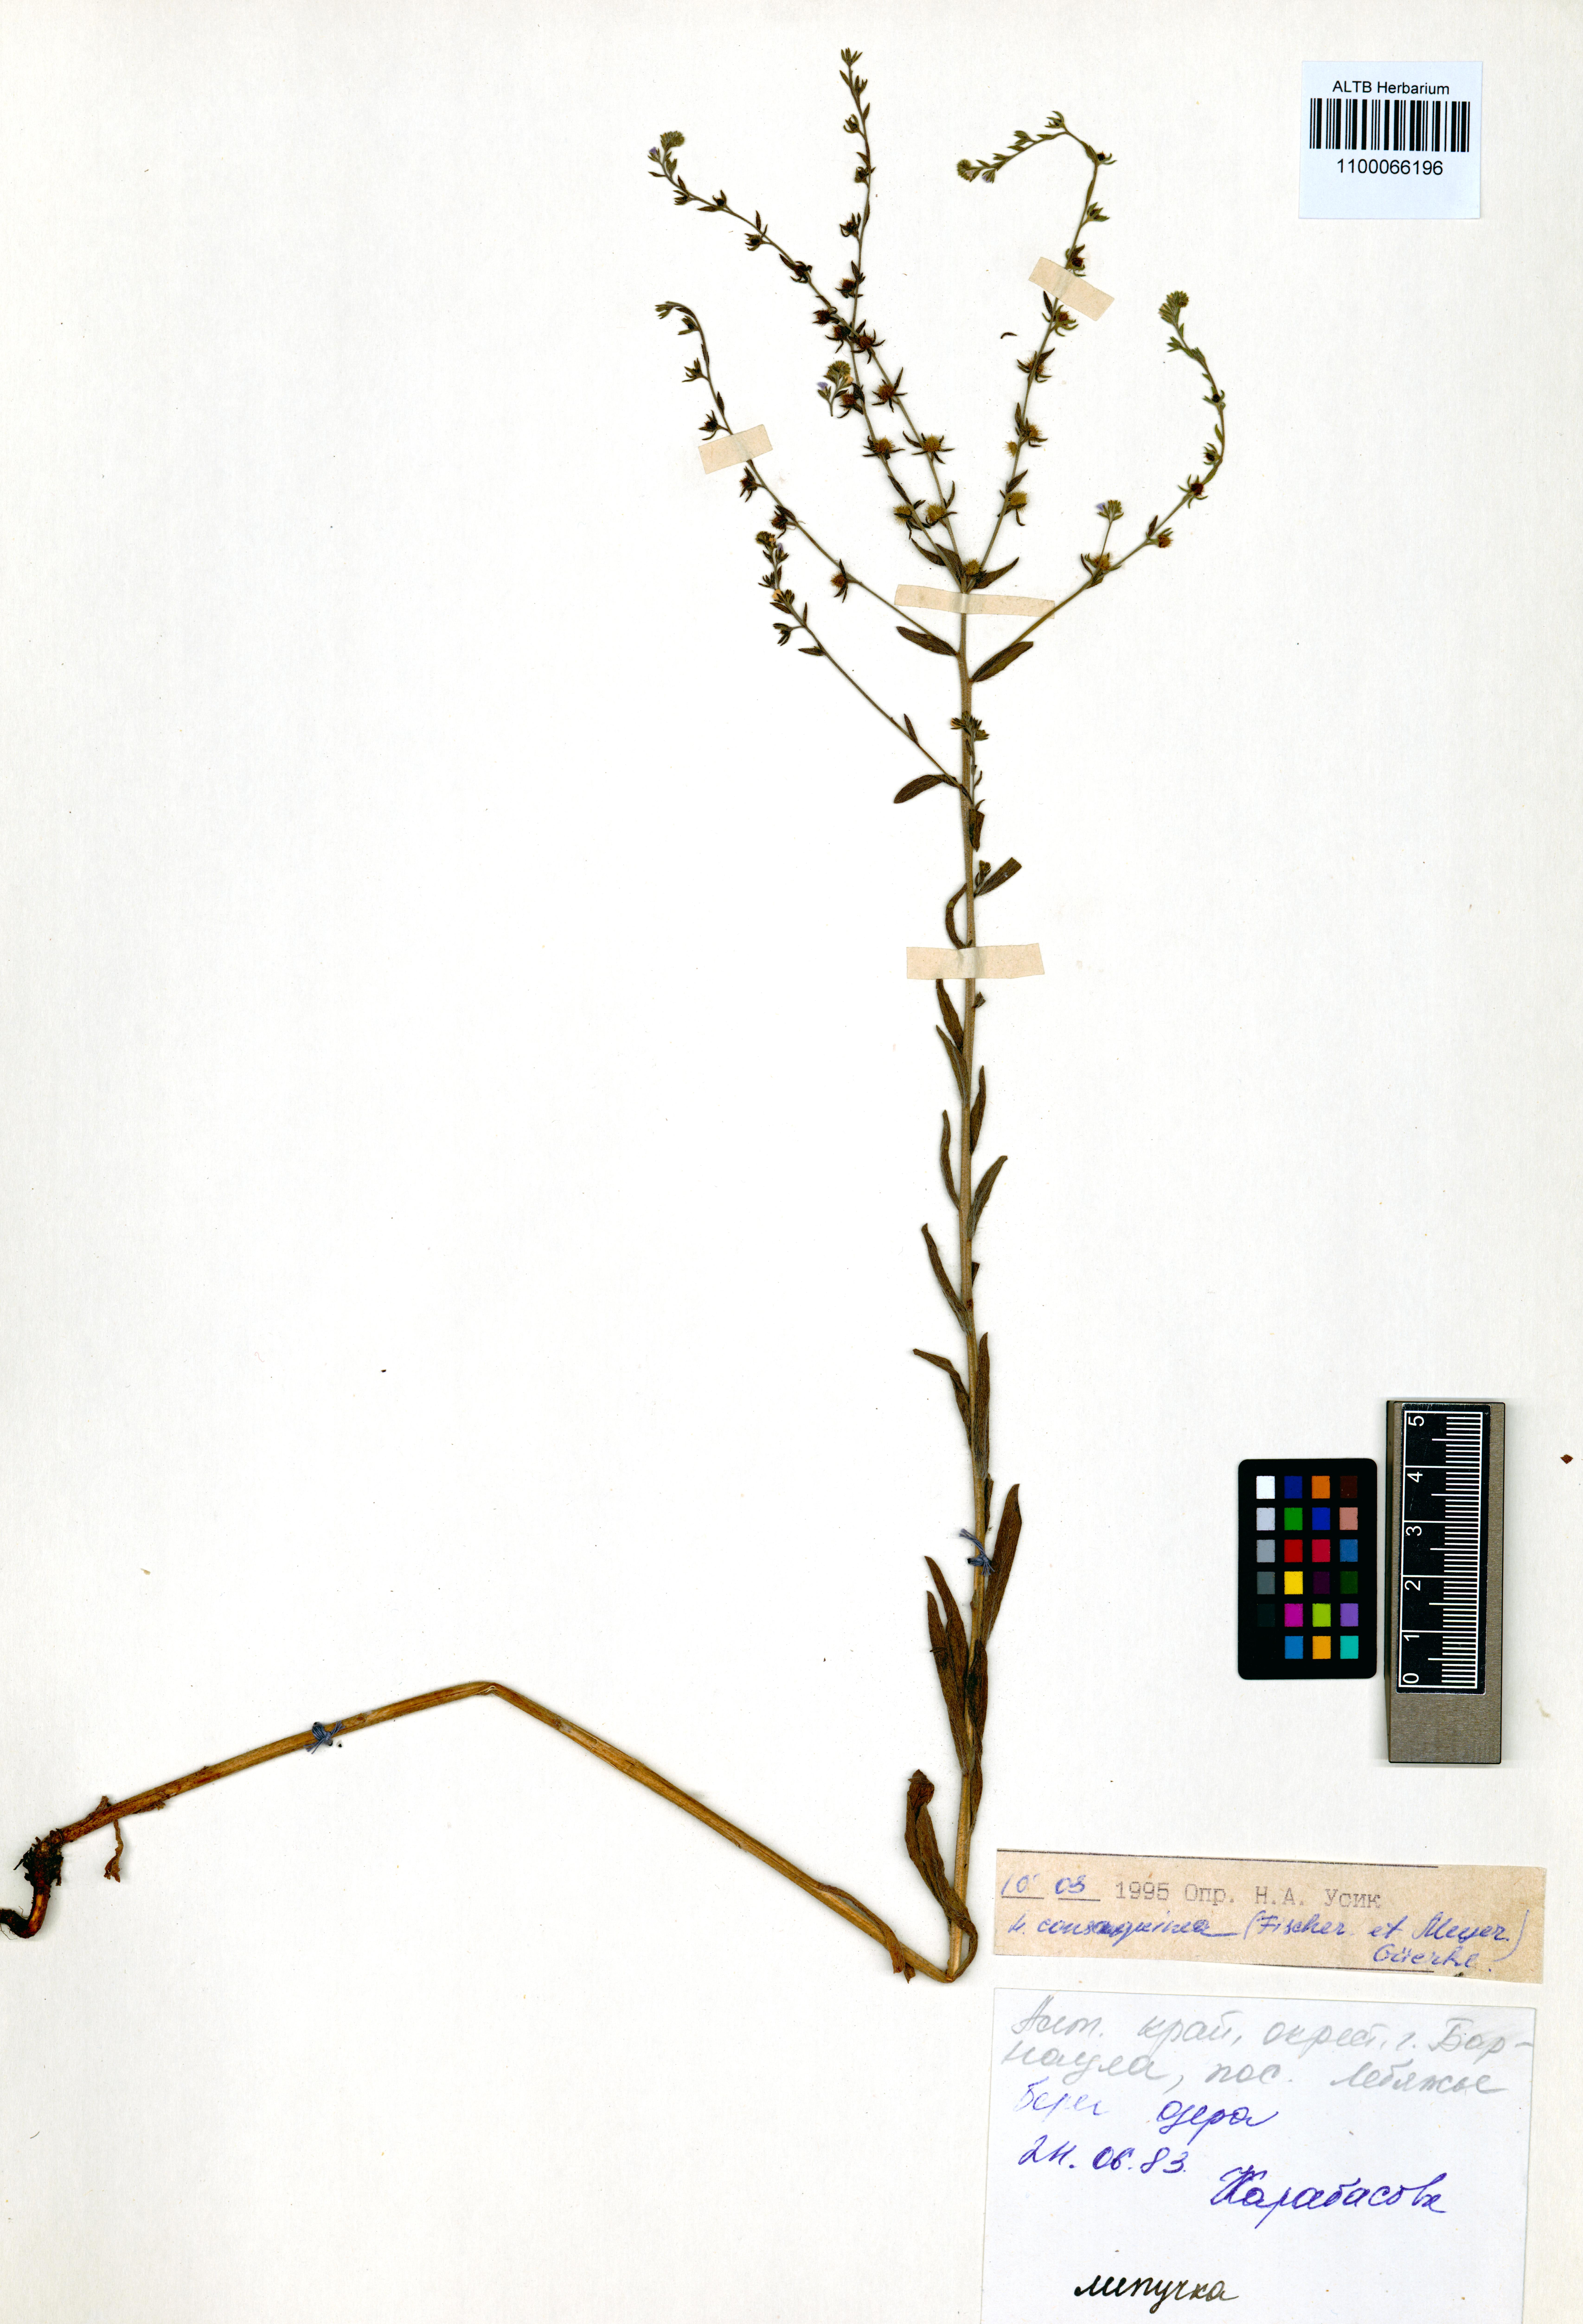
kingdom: Plantae
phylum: Tracheophyta
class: Magnoliopsida
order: Boraginales
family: Boraginaceae
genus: Lappula
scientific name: Lappula squarrosa
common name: European stickseed
